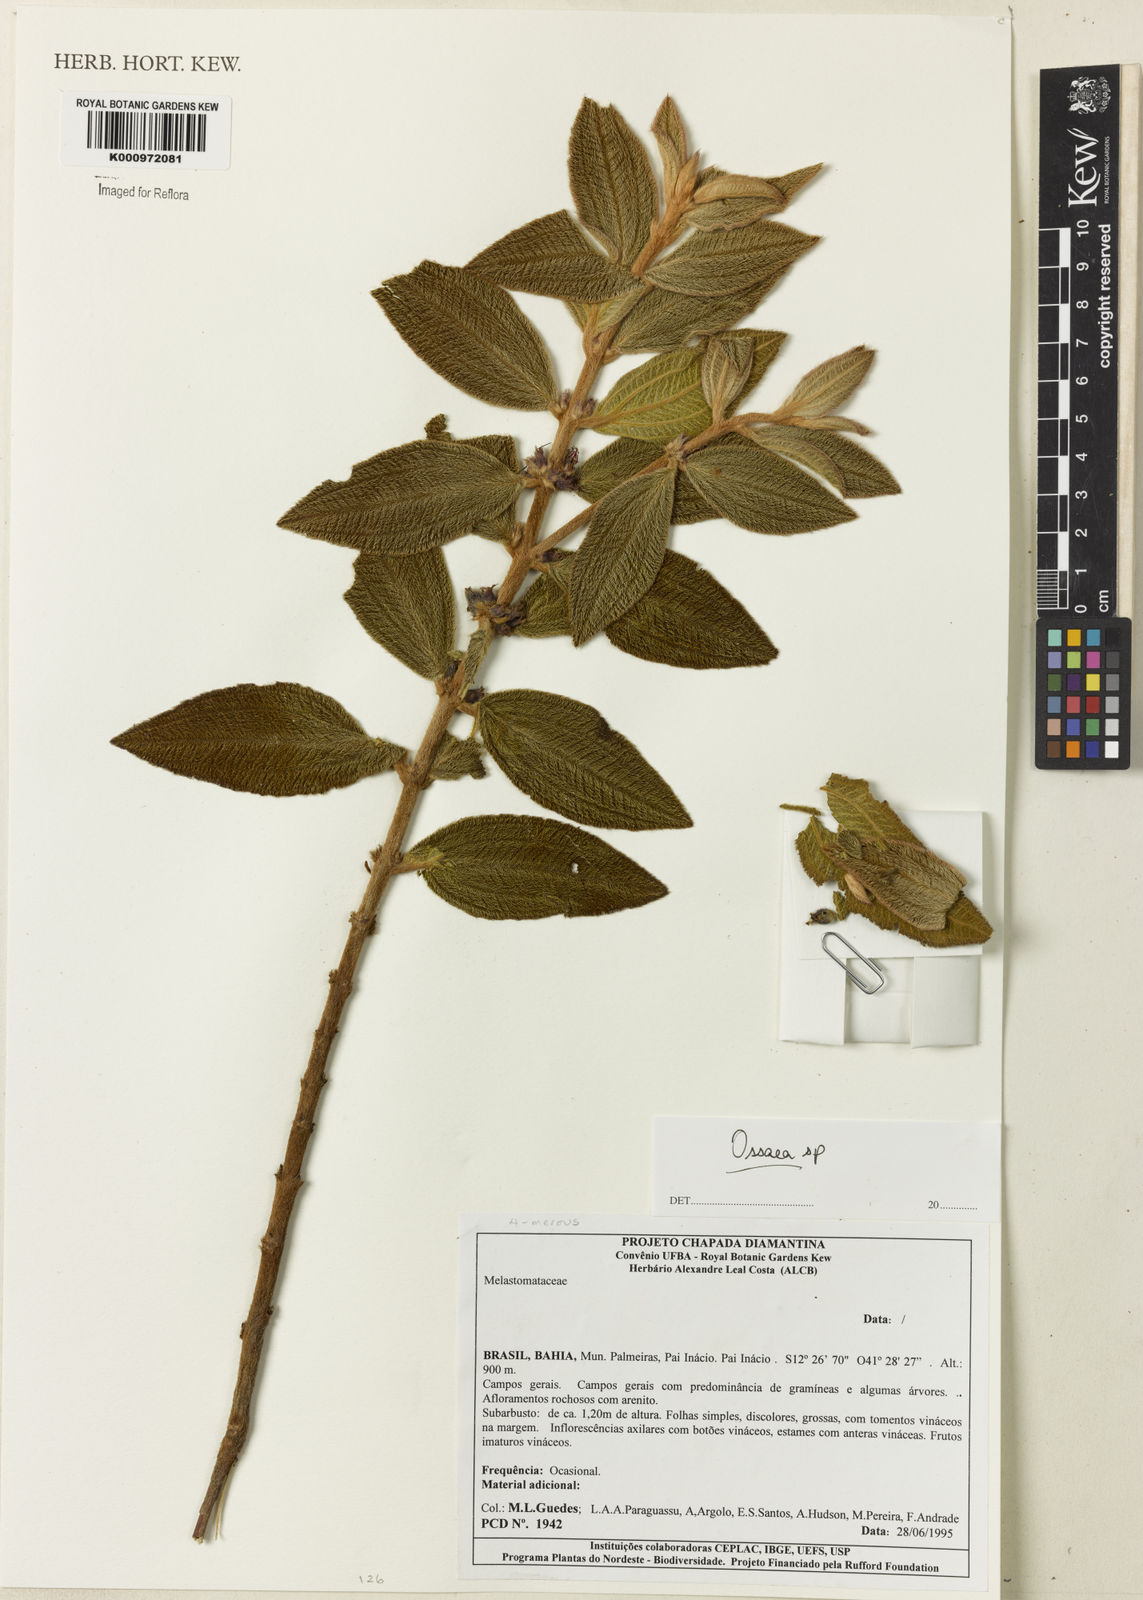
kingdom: Plantae
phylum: Tracheophyta
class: Magnoliopsida
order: Myrtales
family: Melastomataceae
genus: Ossaea
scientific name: Ossaea
